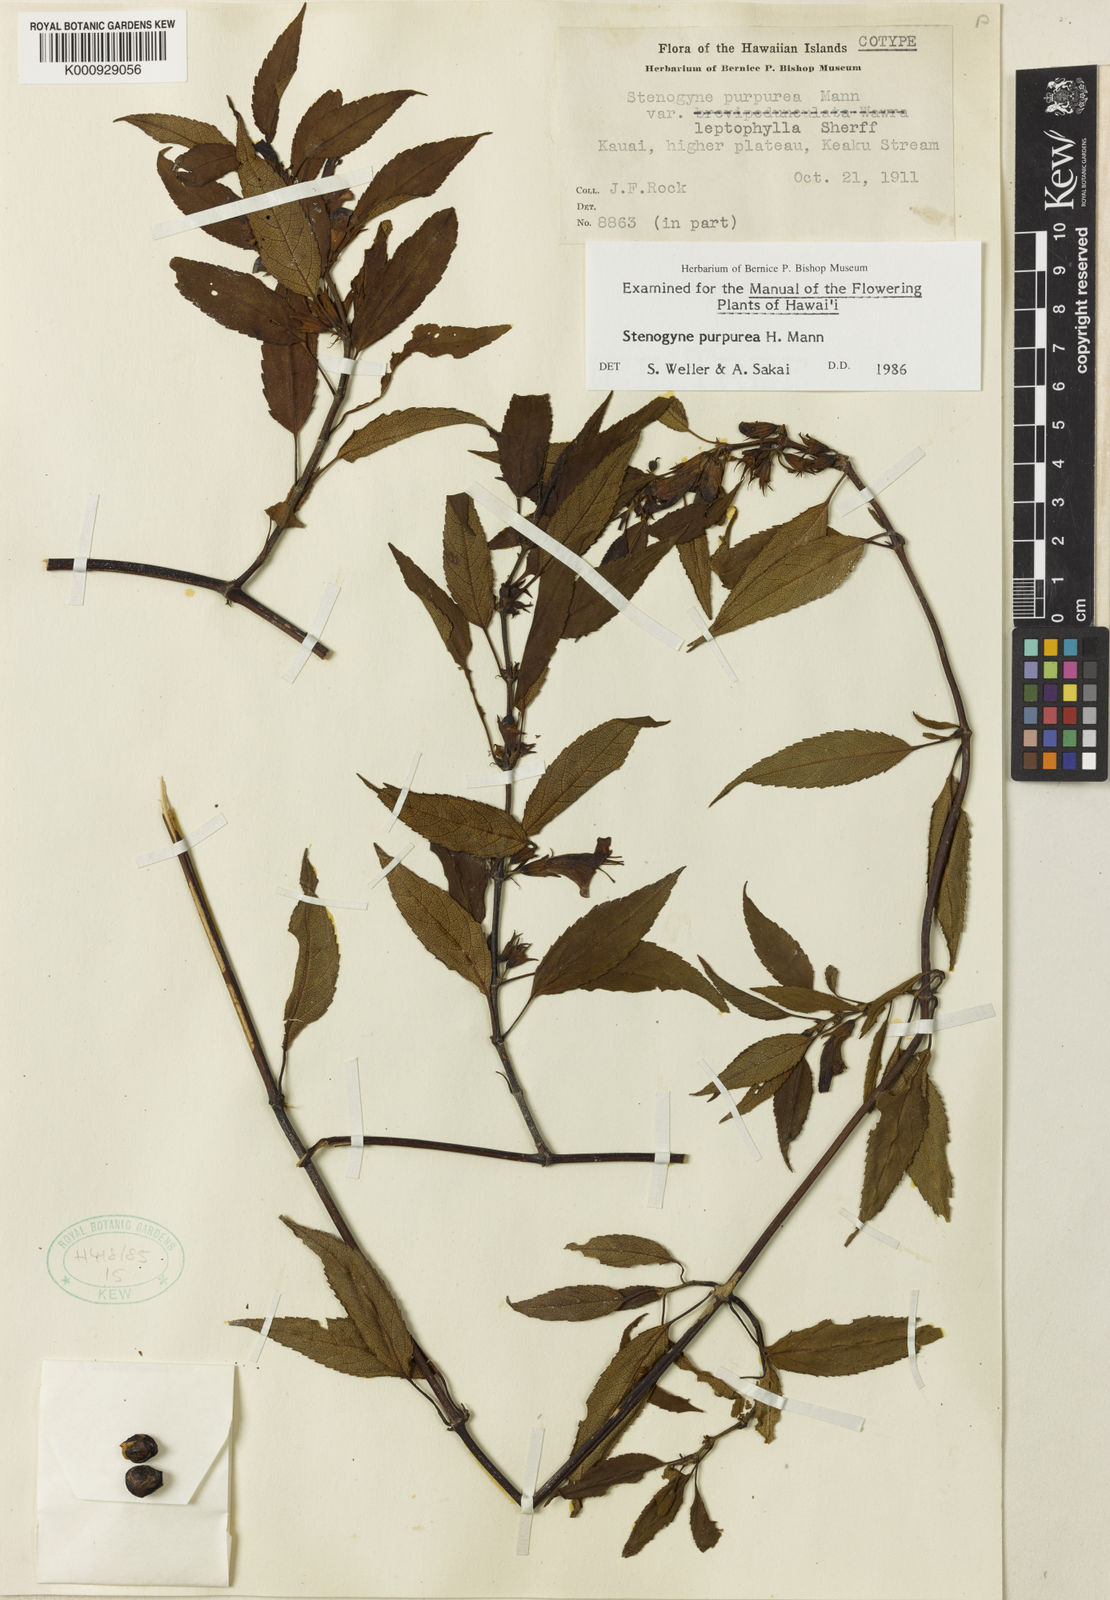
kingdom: Plantae
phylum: Tracheophyta
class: Magnoliopsida
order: Lamiales
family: Lamiaceae
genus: Stenogyne
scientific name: Stenogyne purpurea
